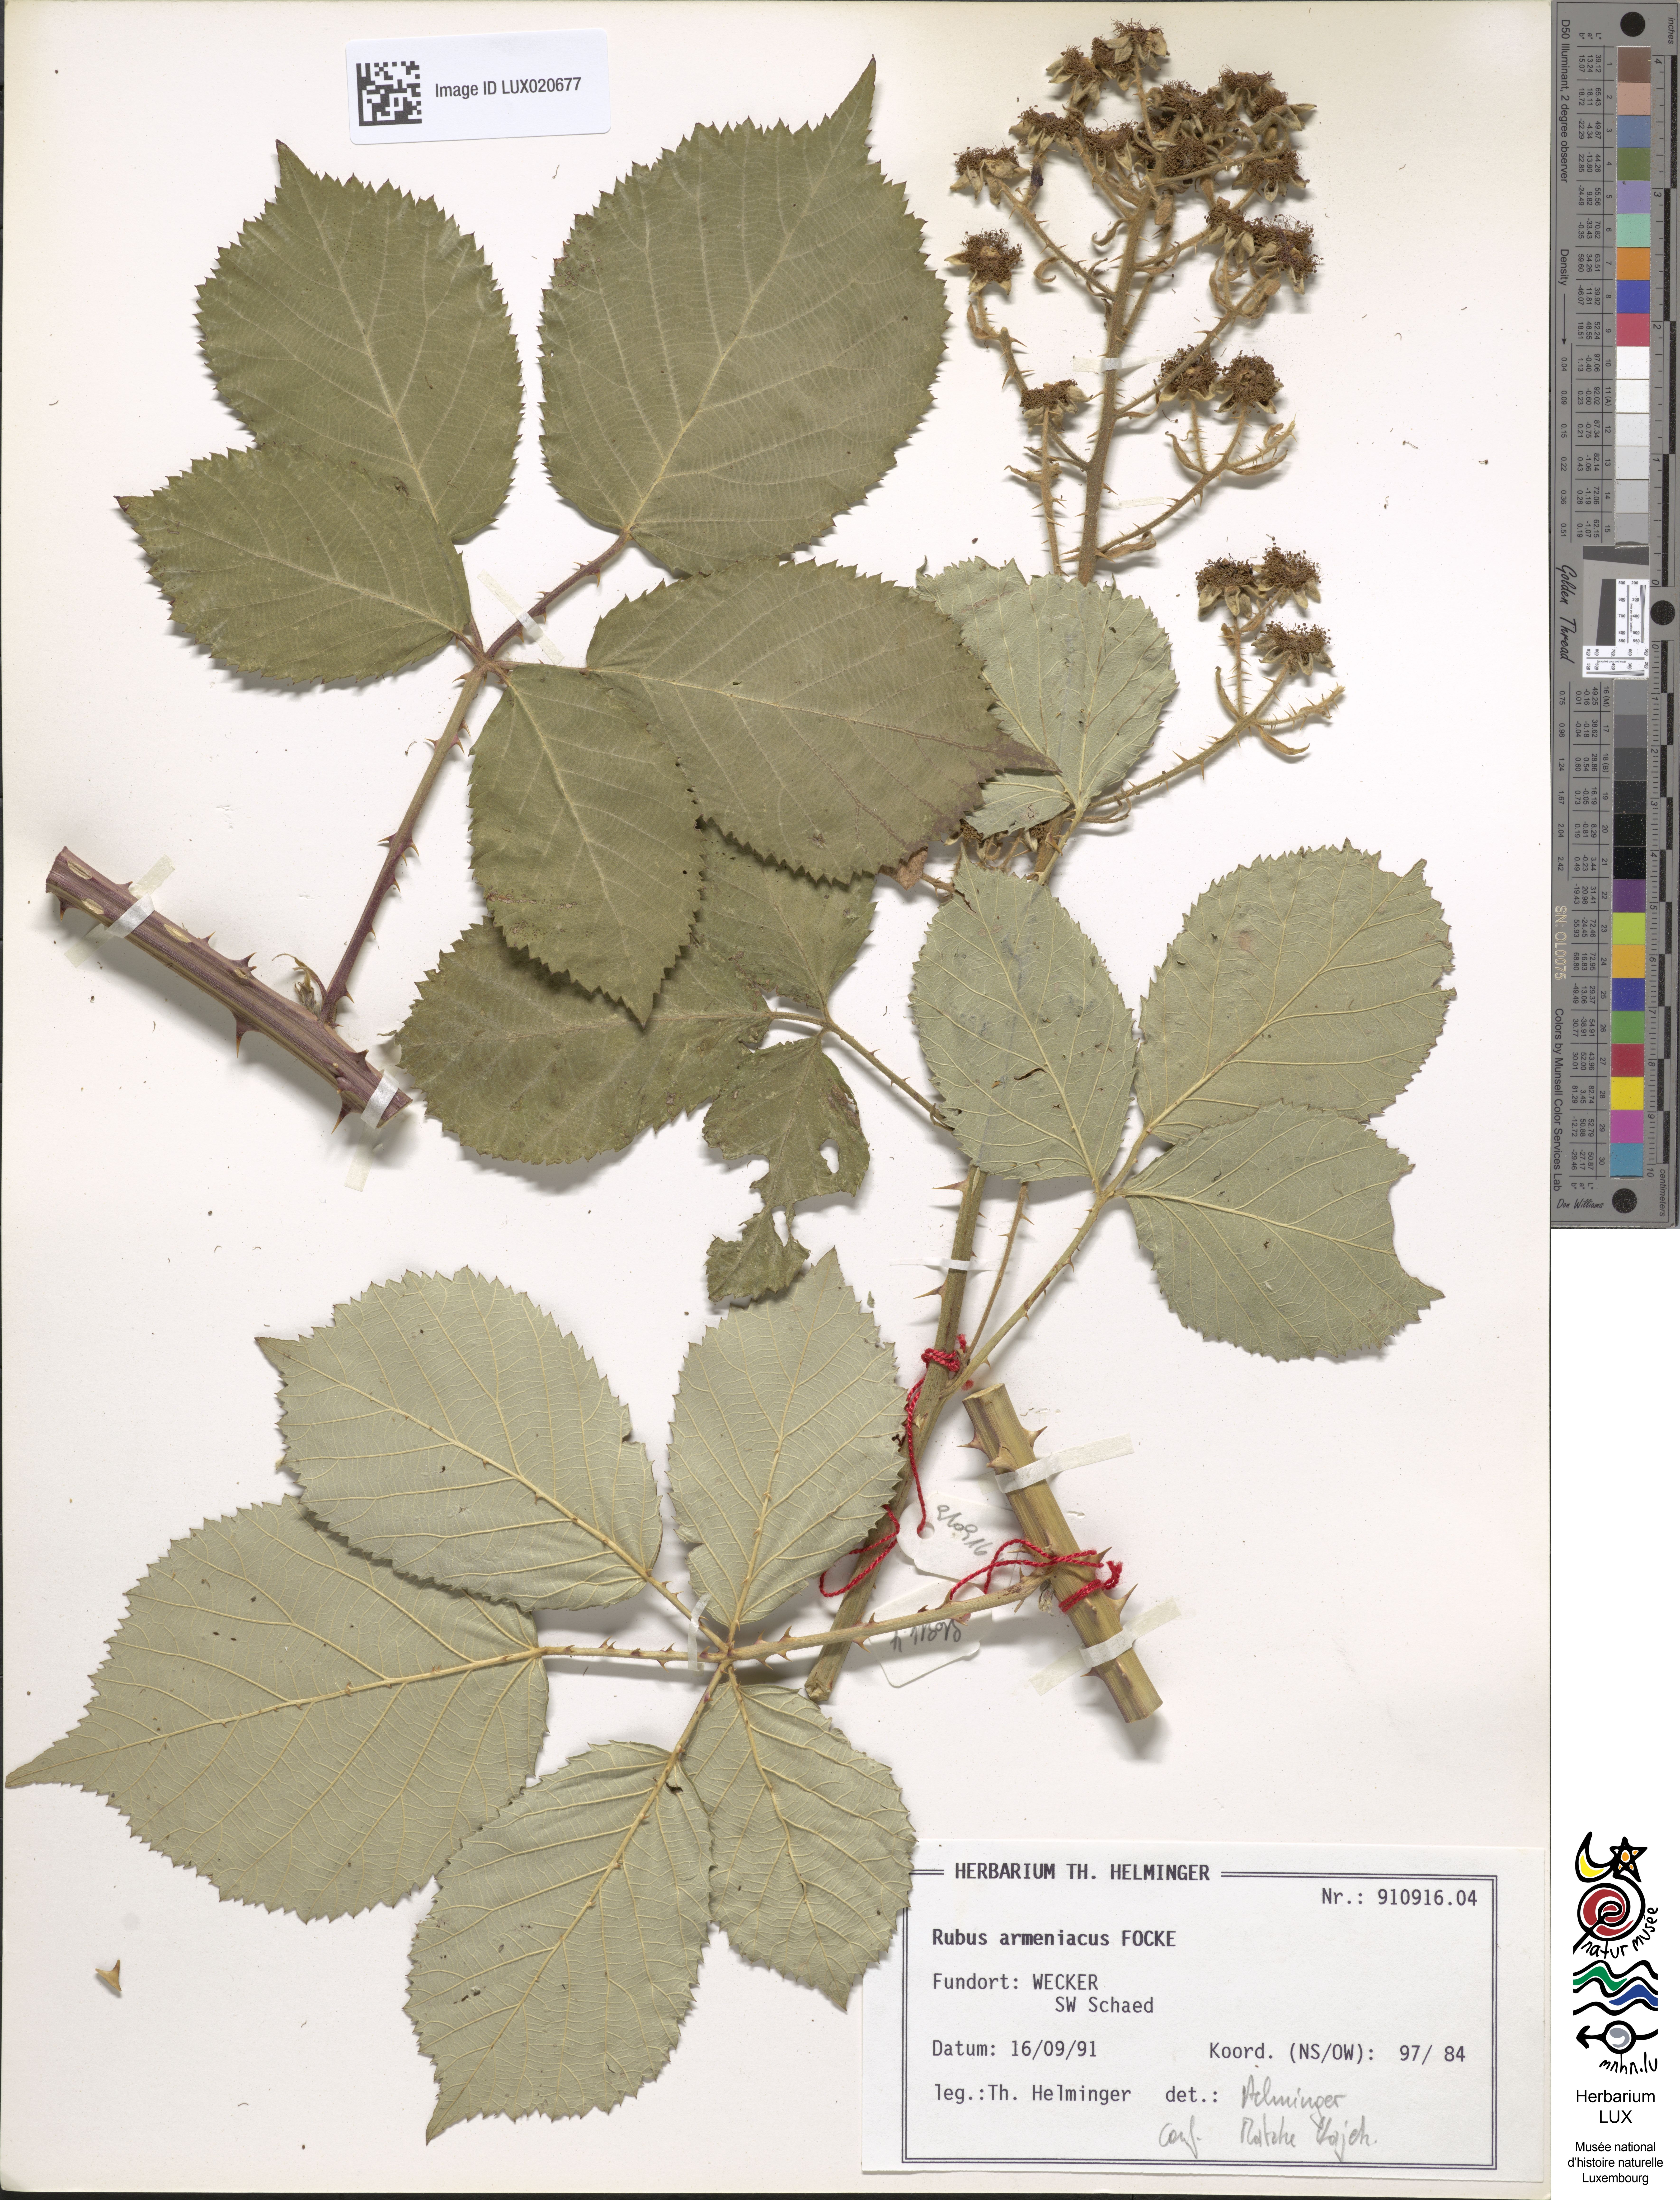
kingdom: Plantae
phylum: Tracheophyta
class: Magnoliopsida
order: Rosales
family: Rosaceae
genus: Rubus
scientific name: Rubus armeniacus
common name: Himalayan blackberry
